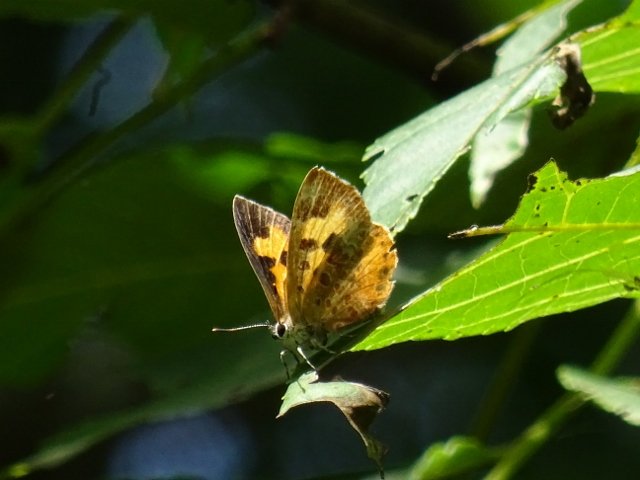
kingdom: Animalia
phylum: Arthropoda
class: Insecta
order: Lepidoptera
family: Lycaenidae
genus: Feniseca
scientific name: Feniseca tarquinius
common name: Harvester
